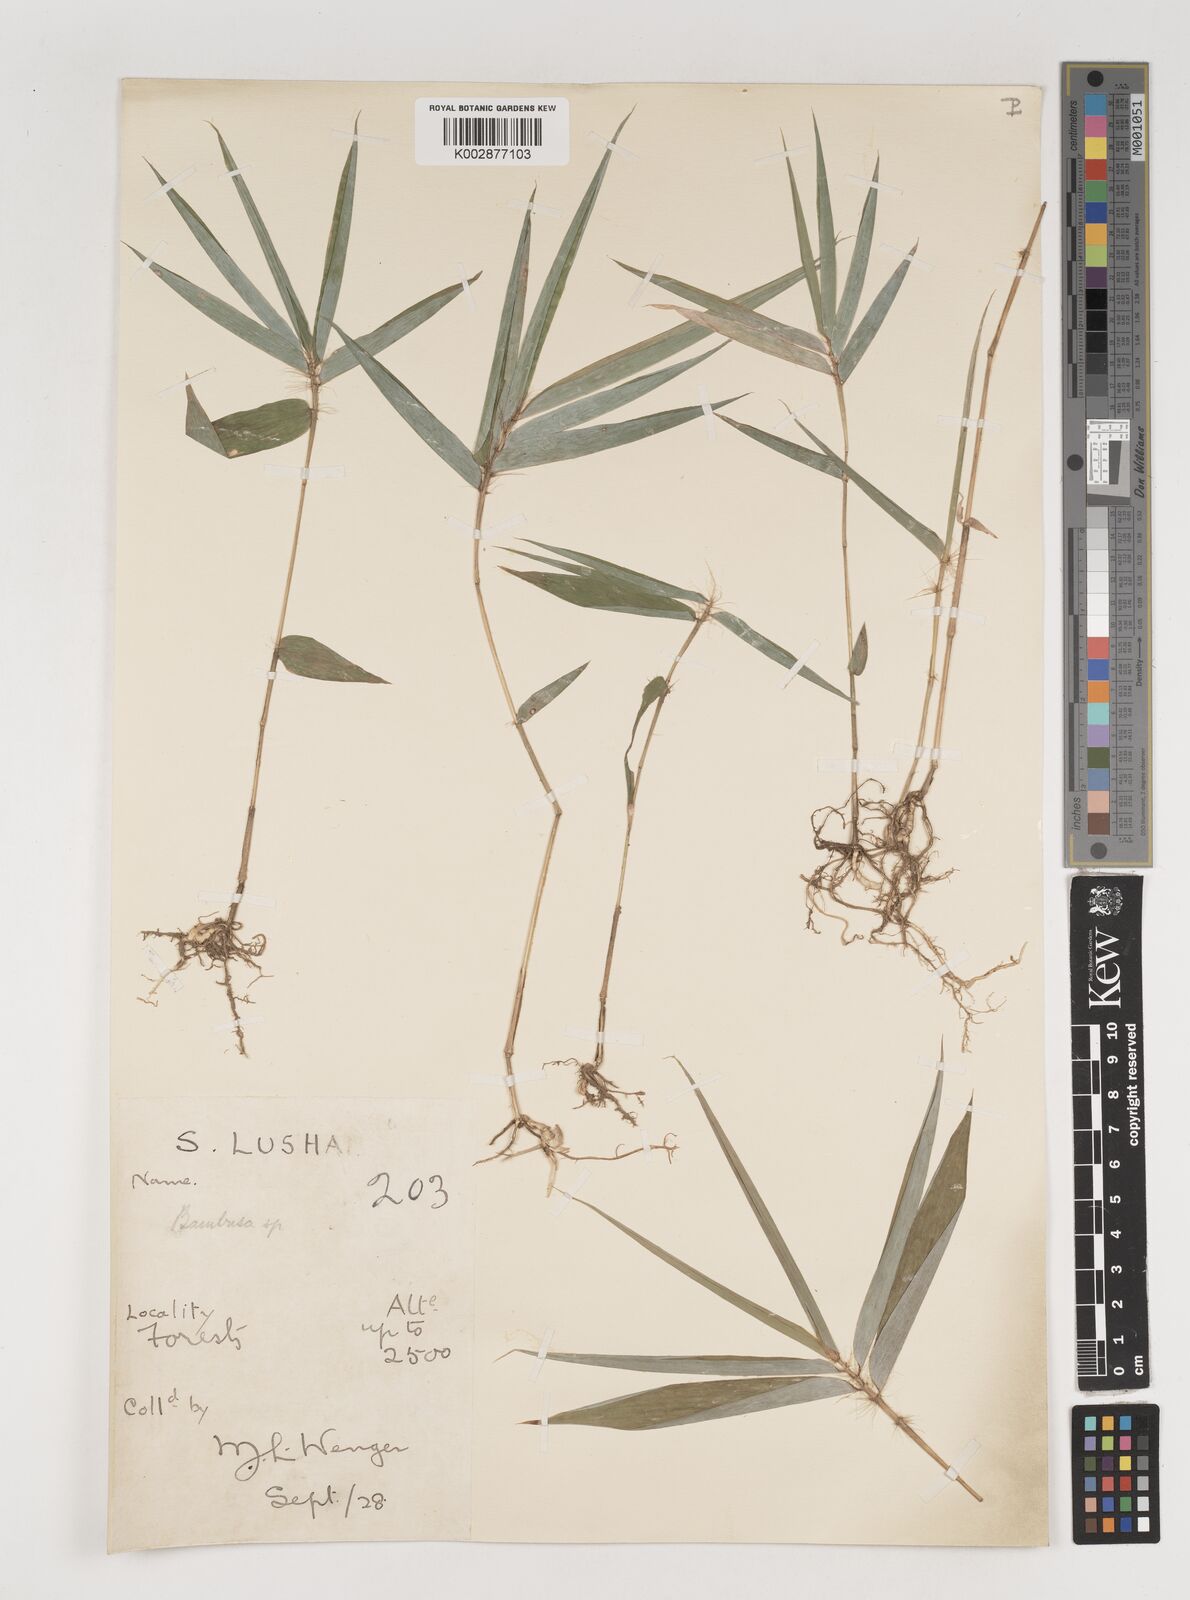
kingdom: Plantae
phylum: Tracheophyta
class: Liliopsida
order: Poales
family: Poaceae
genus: Bambusa
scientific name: Bambusa
